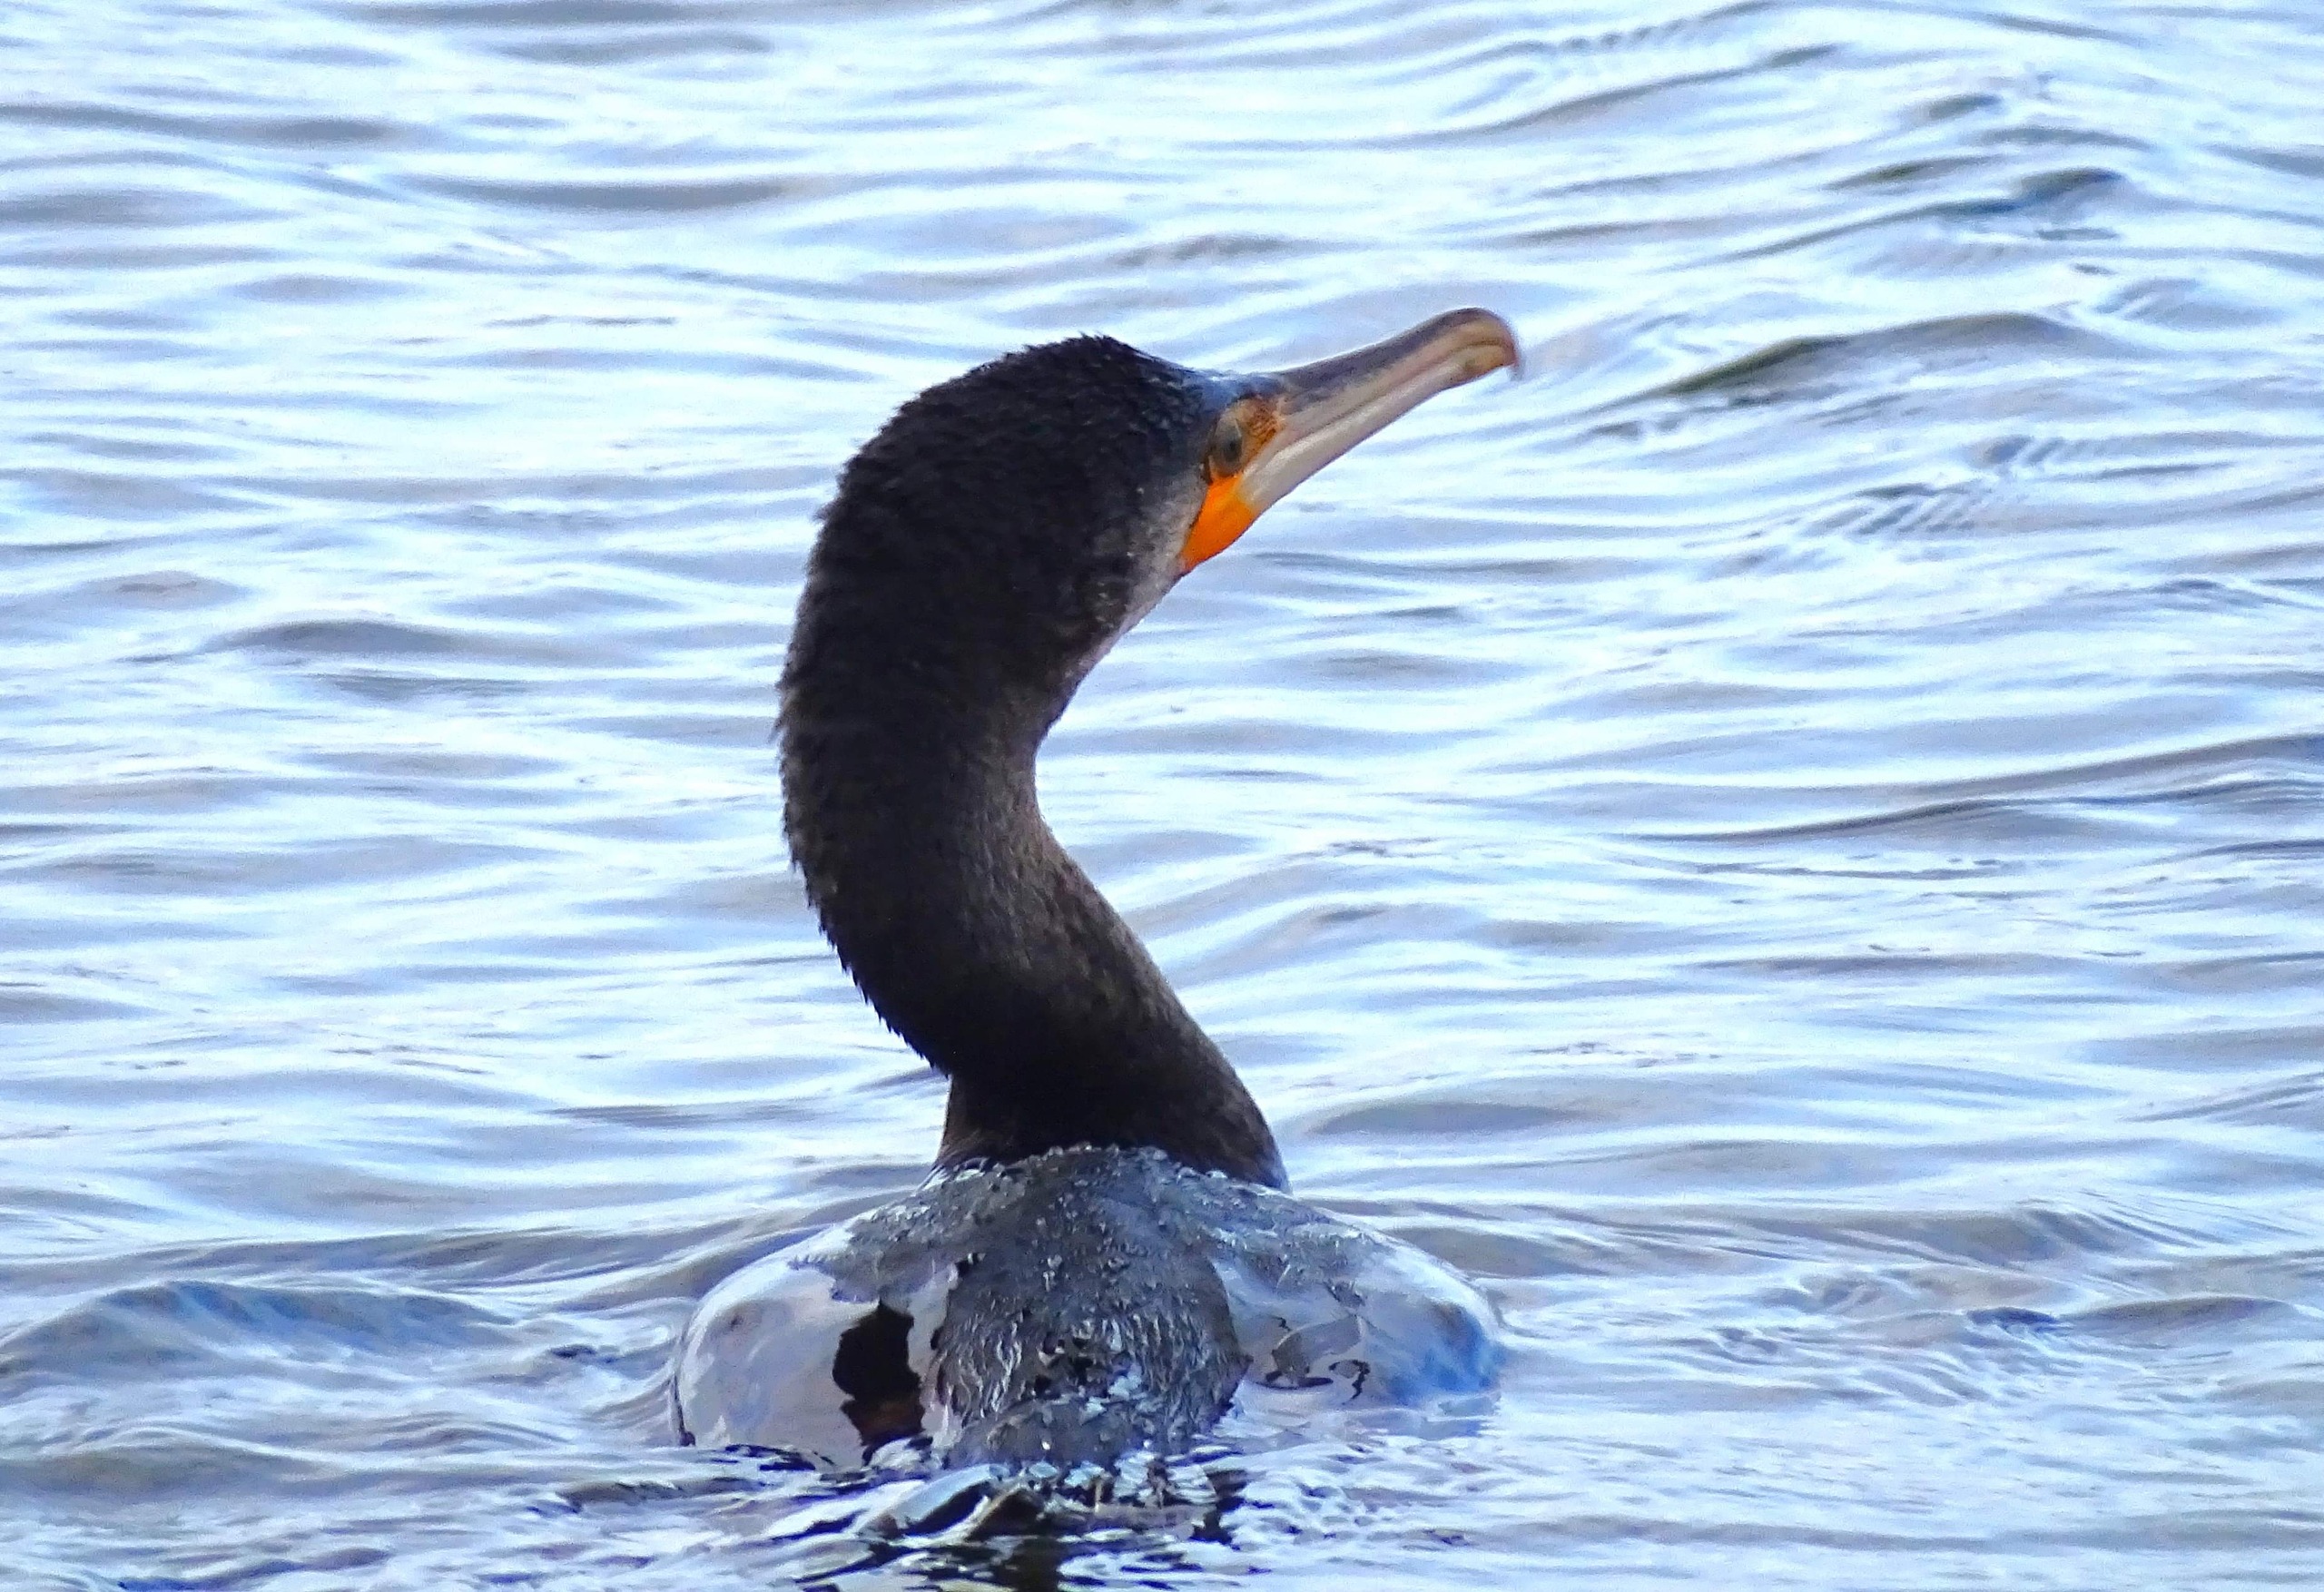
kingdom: Animalia
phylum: Chordata
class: Aves
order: Suliformes
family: Phalacrocoracidae
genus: Phalacrocorax
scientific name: Phalacrocorax carbo
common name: Skarv
